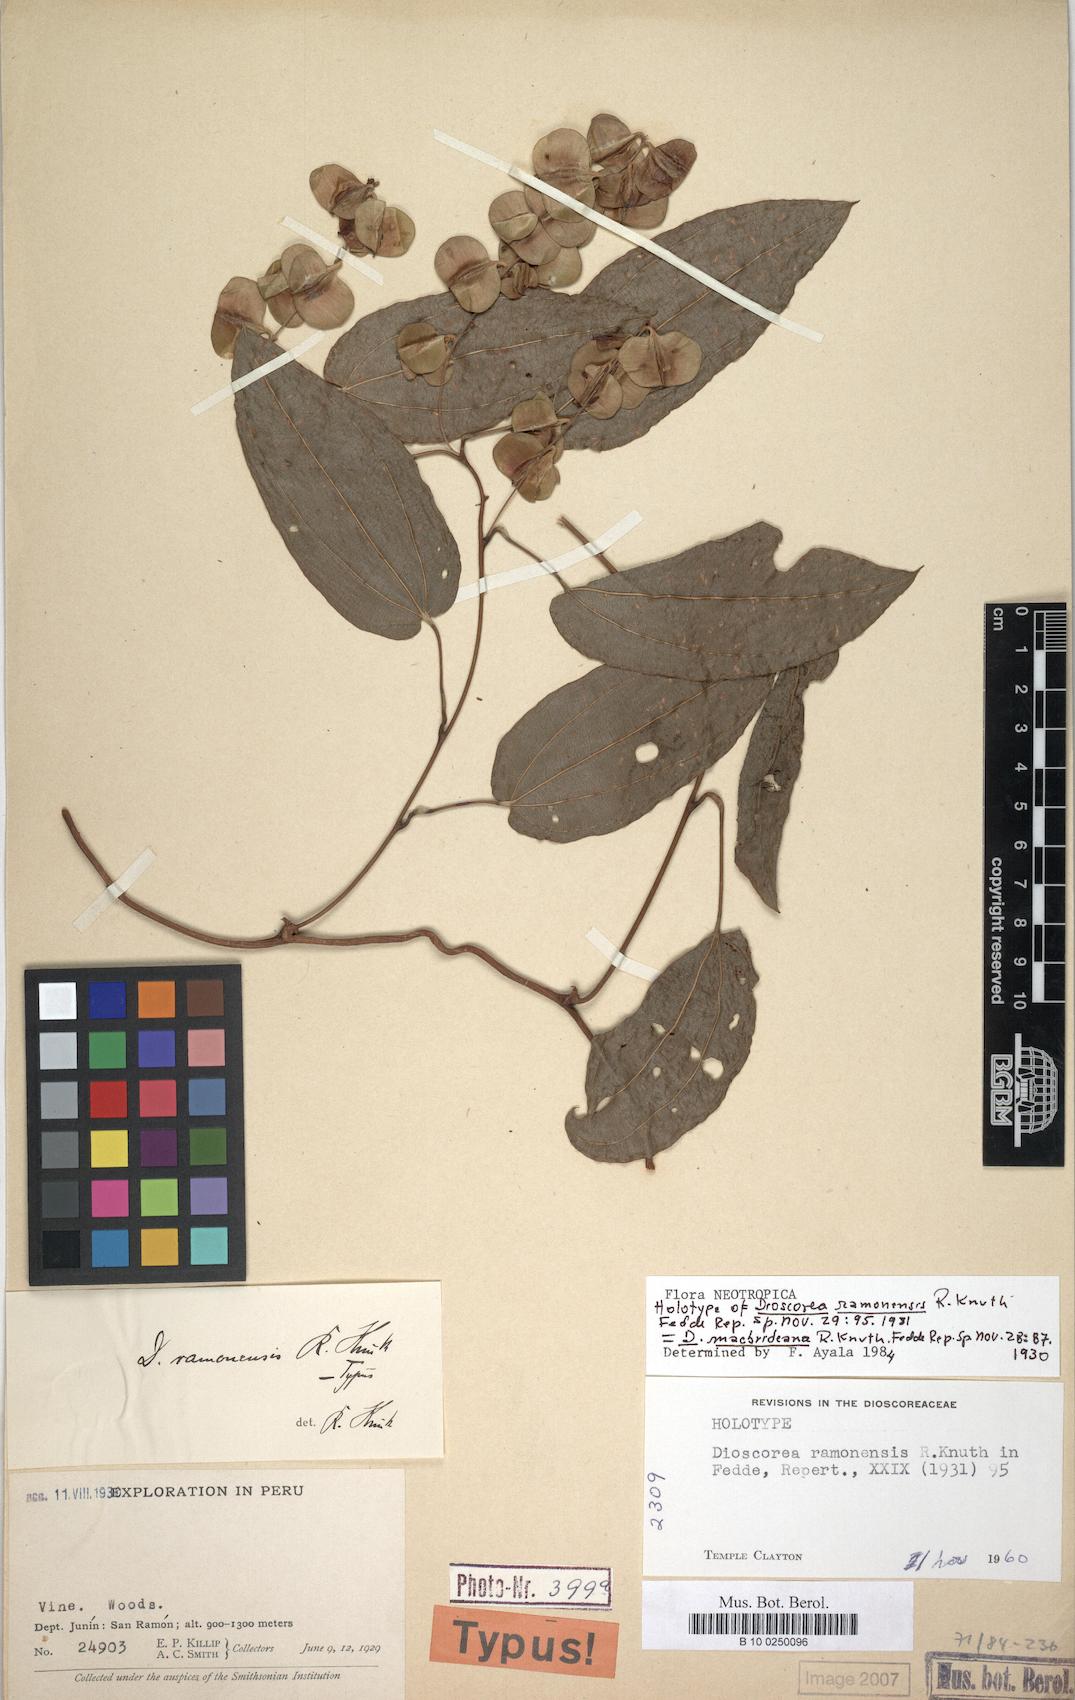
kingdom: Plantae
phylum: Tracheophyta
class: Liliopsida
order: Dioscoreales
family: Dioscoreaceae
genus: Dioscorea
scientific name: Dioscorea macbrideana
